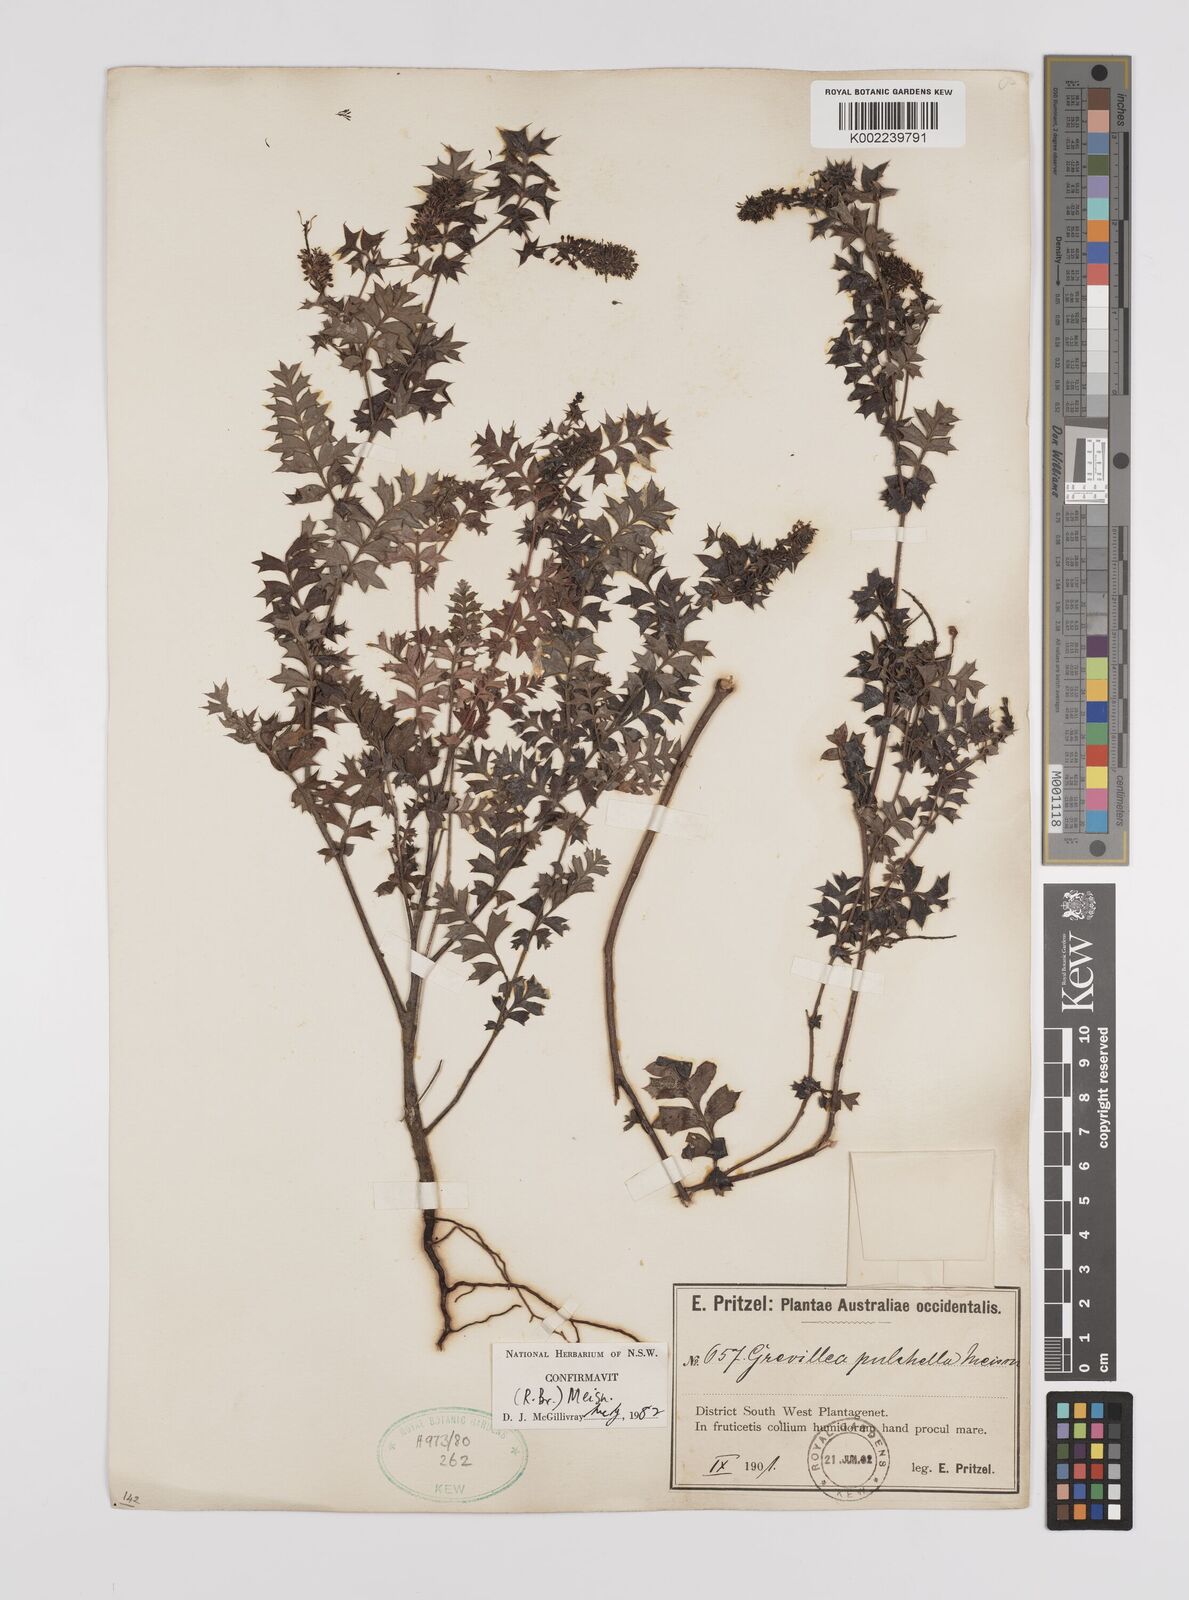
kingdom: Plantae
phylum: Tracheophyta
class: Magnoliopsida
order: Proteales
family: Proteaceae
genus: Grevillea
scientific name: Grevillea pulchella
